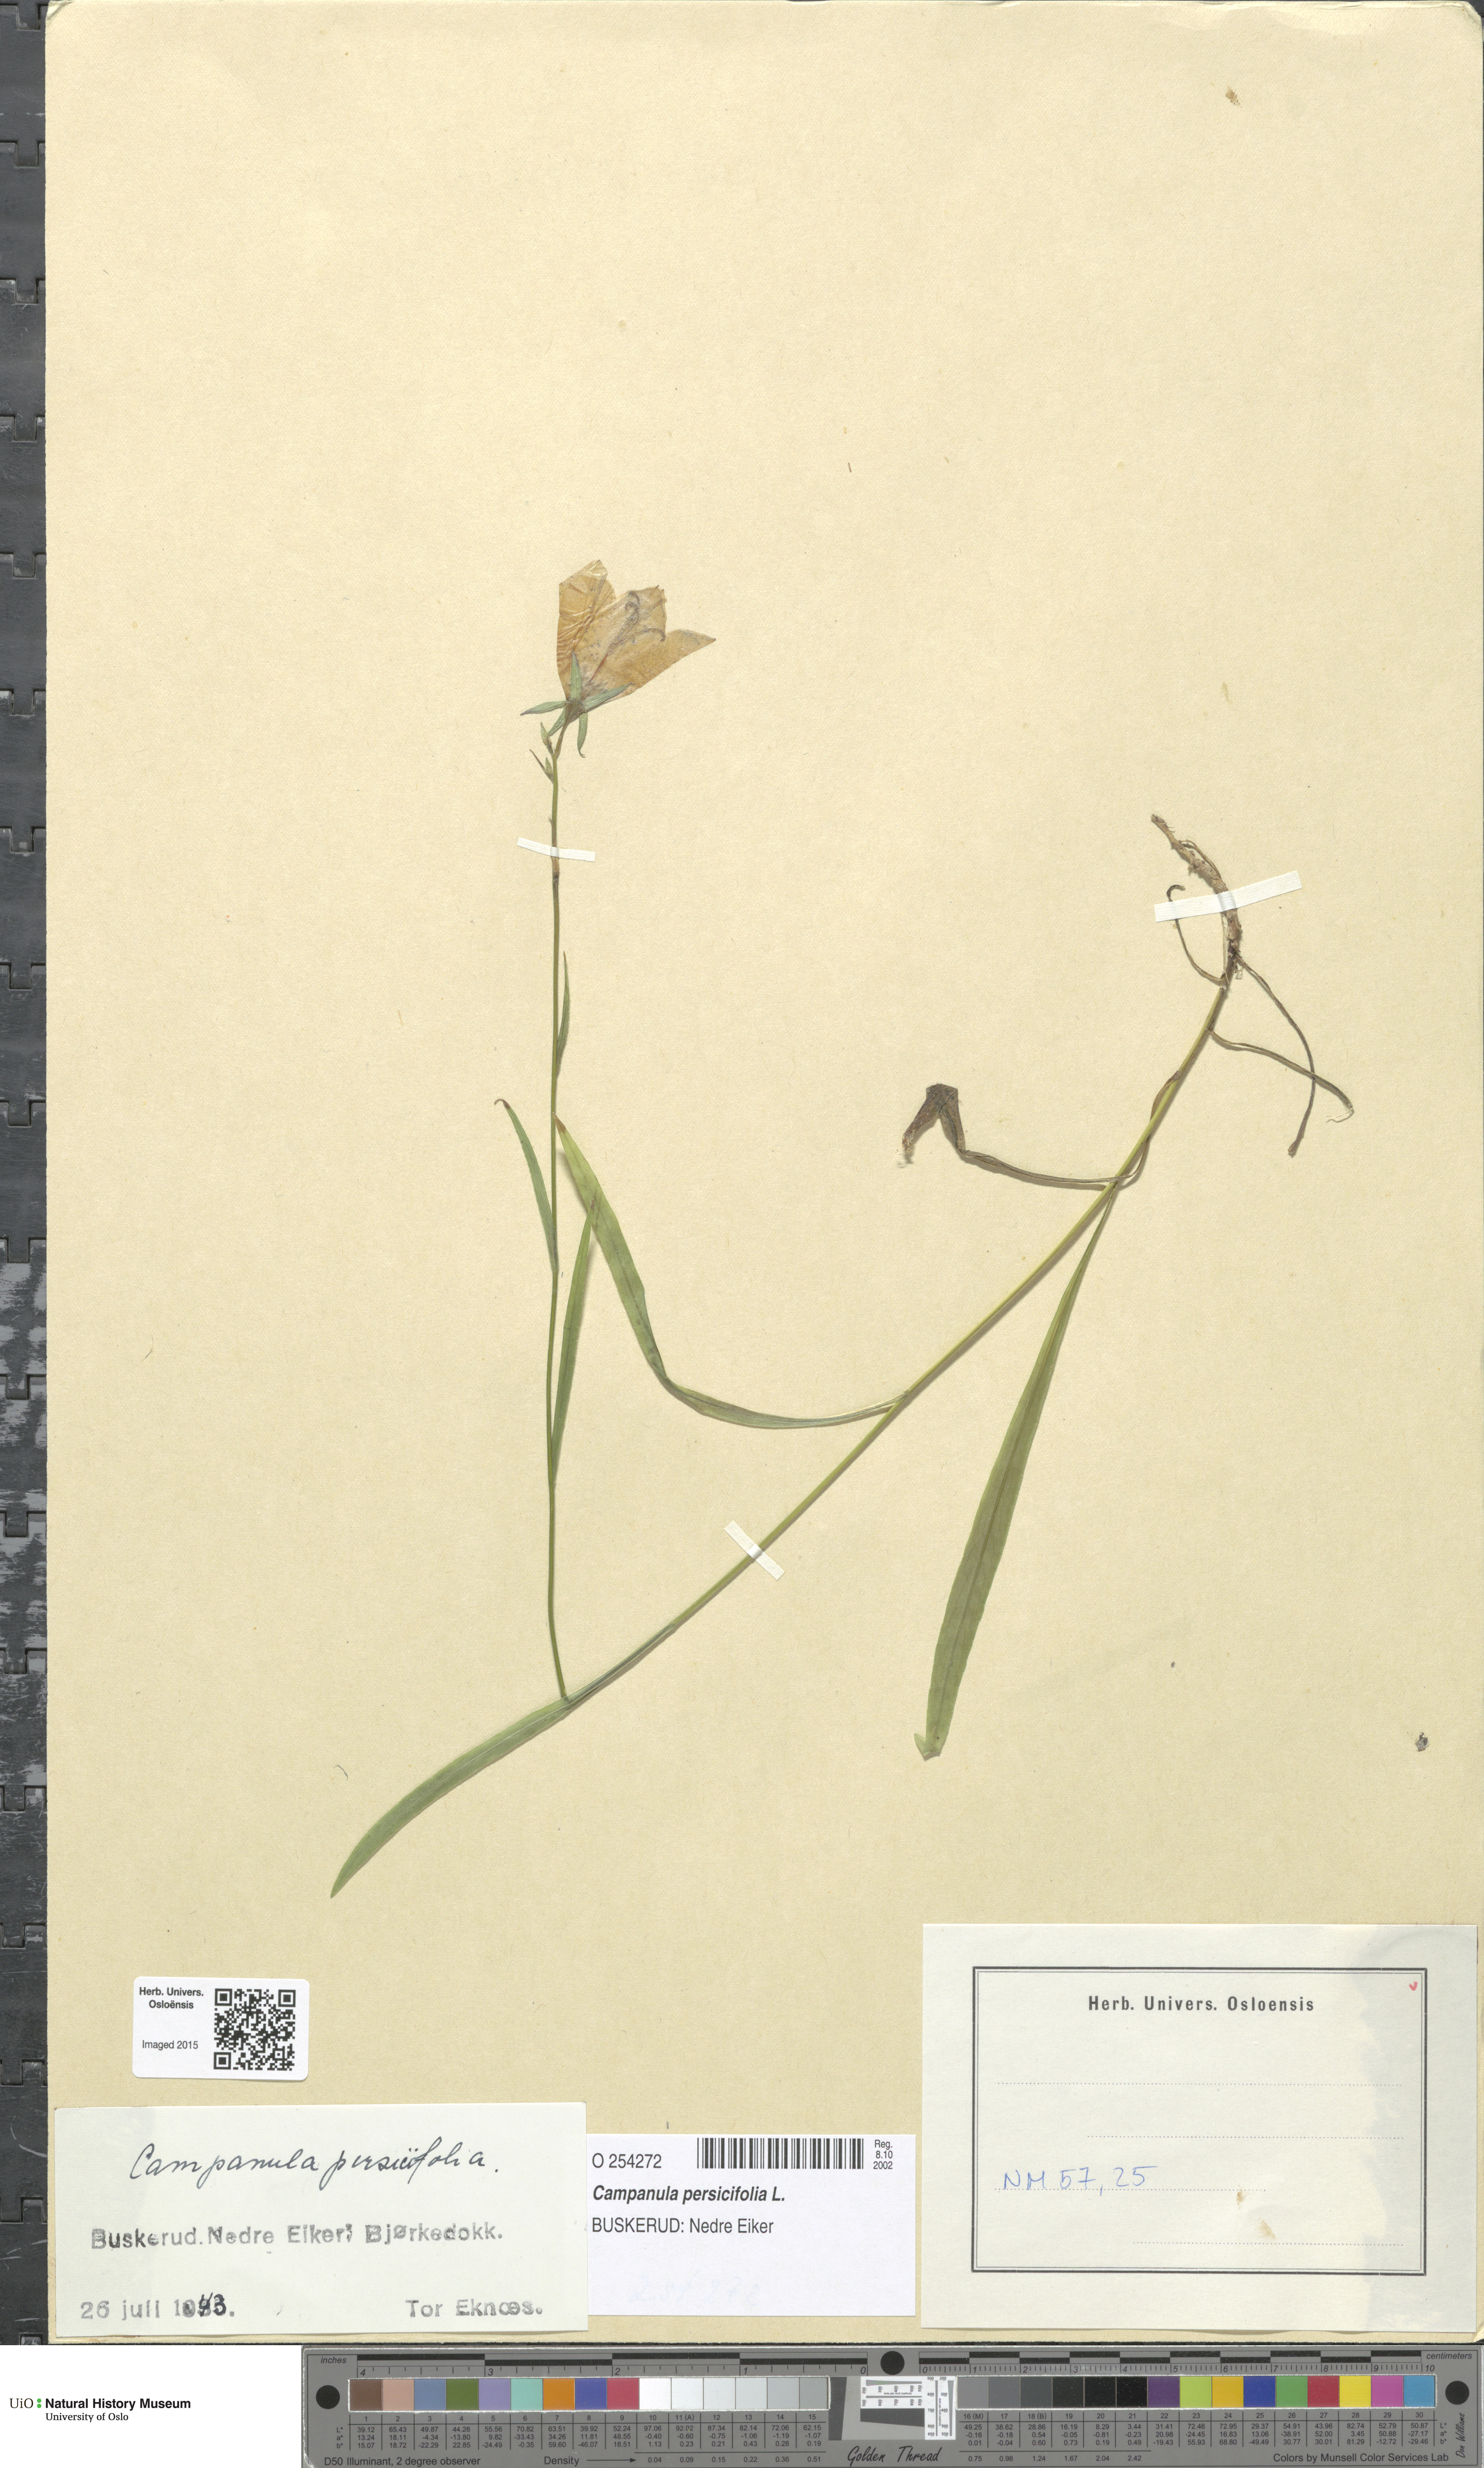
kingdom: Plantae
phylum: Tracheophyta
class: Magnoliopsida
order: Asterales
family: Campanulaceae
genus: Campanula
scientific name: Campanula persicifolia
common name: Peach-leaved bellflower
